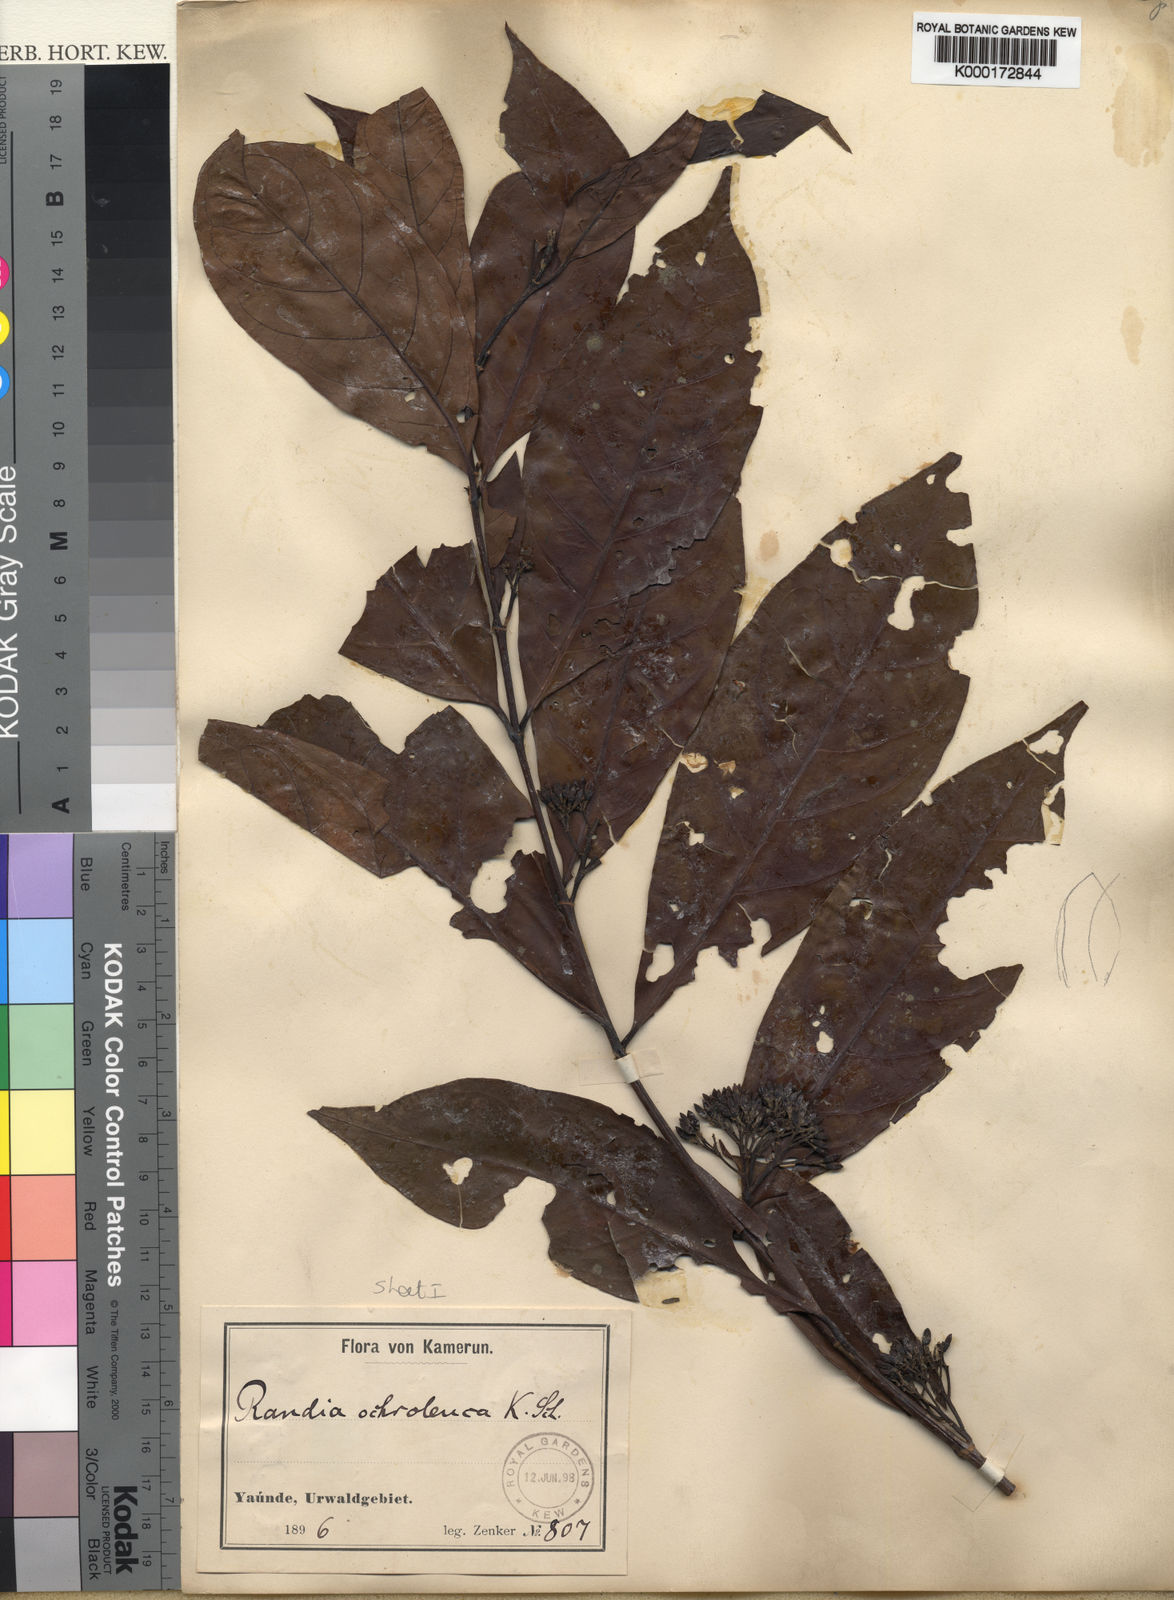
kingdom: Plantae
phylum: Tracheophyta
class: Magnoliopsida
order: Gentianales
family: Rubiaceae
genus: Aidia
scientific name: Aidia ochroleuca
